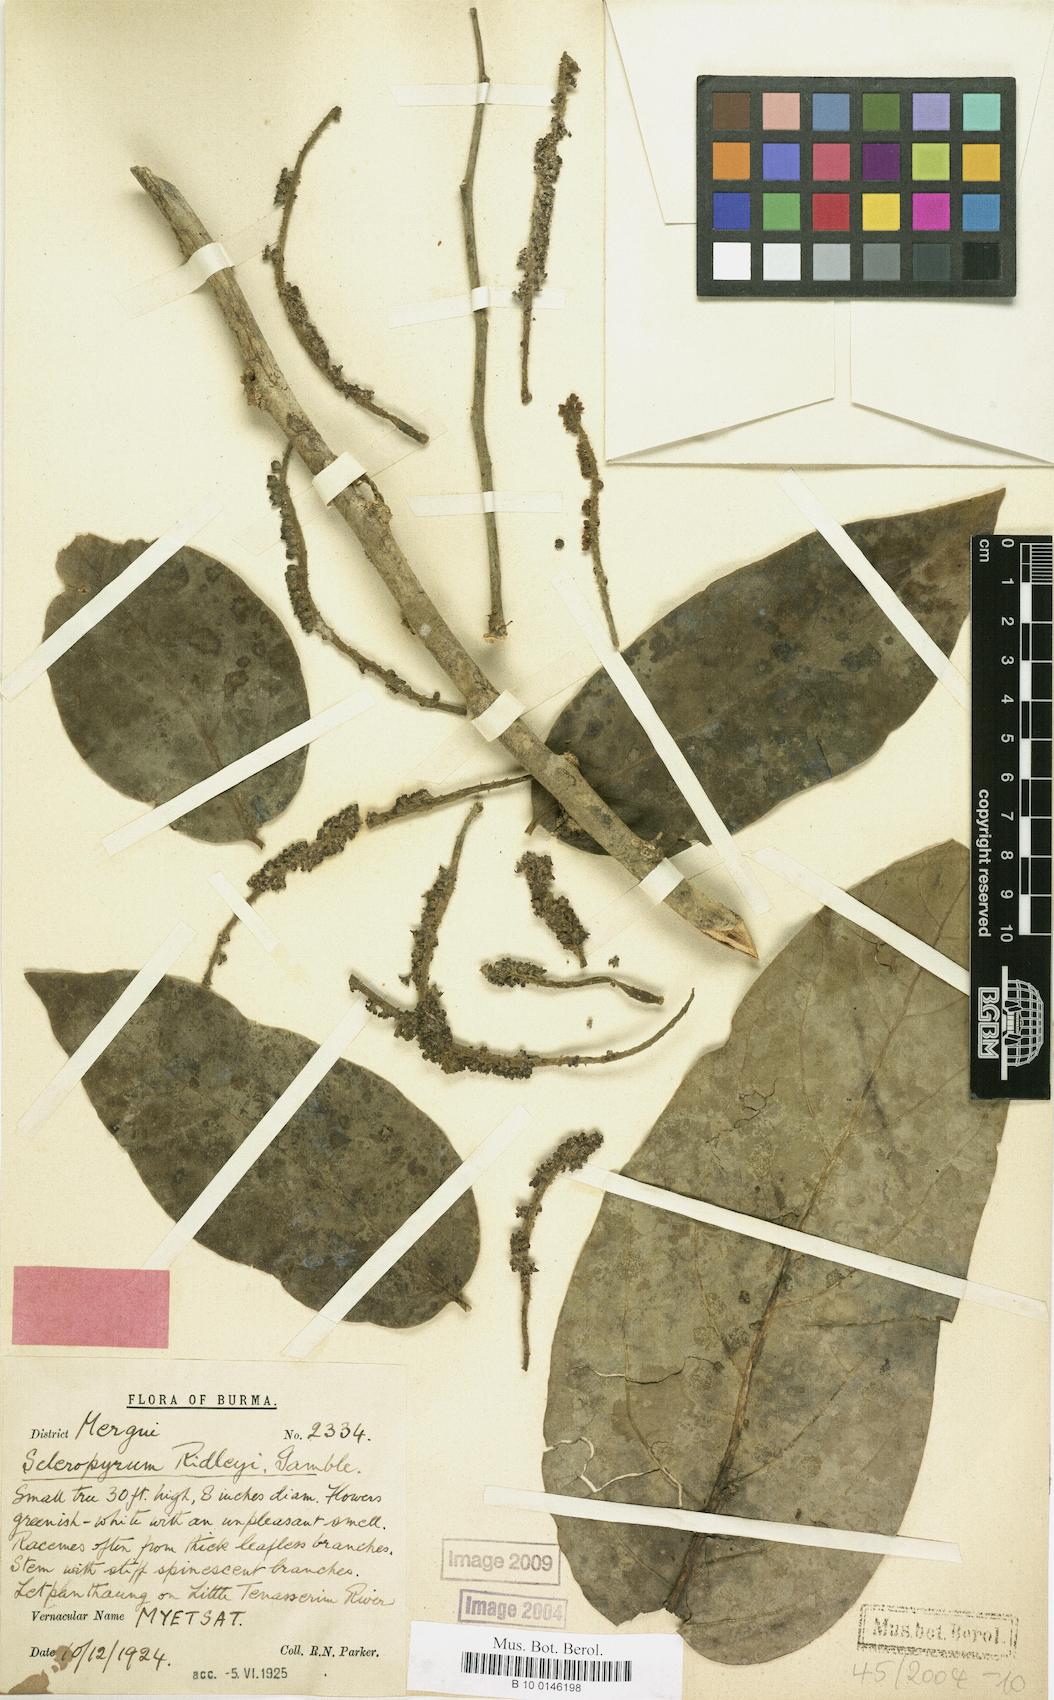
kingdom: Plantae
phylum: Tracheophyta
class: Magnoliopsida
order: Santalales
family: Cervantesiaceae
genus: Scleropyrum
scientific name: Scleropyrum pentandrum
